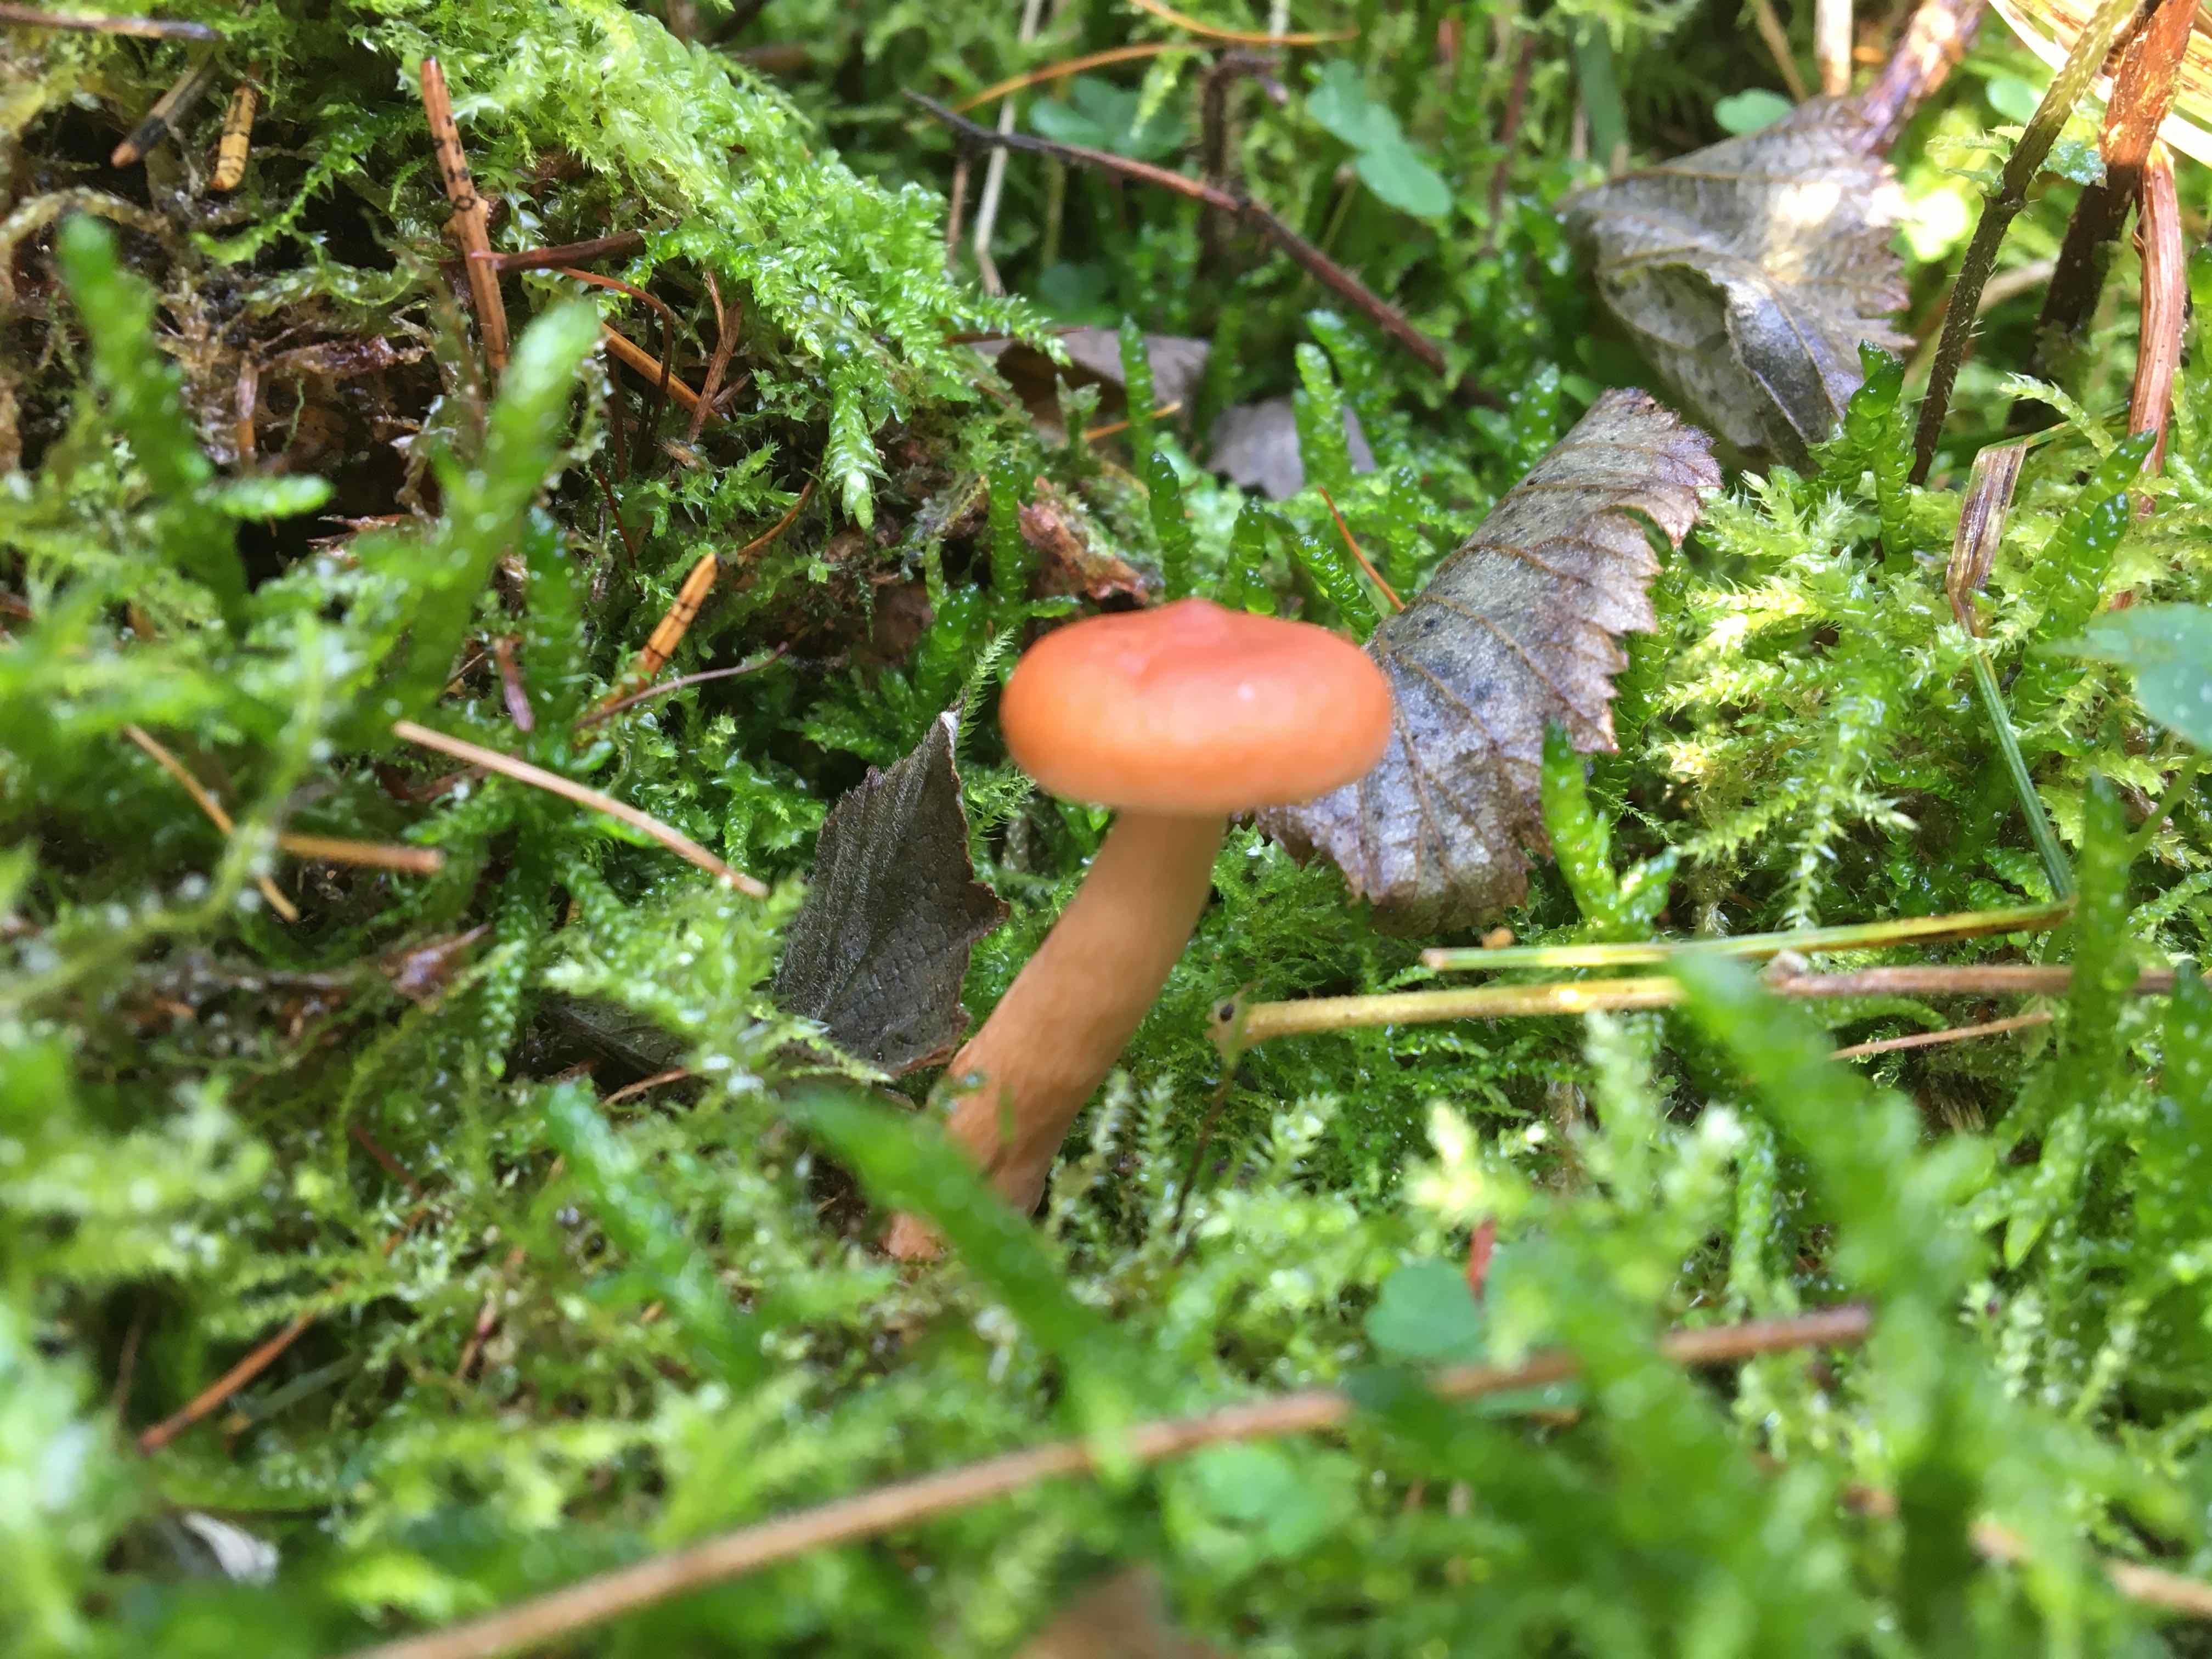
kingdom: Fungi
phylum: Basidiomycota
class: Agaricomycetes
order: Russulales
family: Russulaceae
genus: Lactarius
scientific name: Lactarius tabidus
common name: rynket mælkehat
